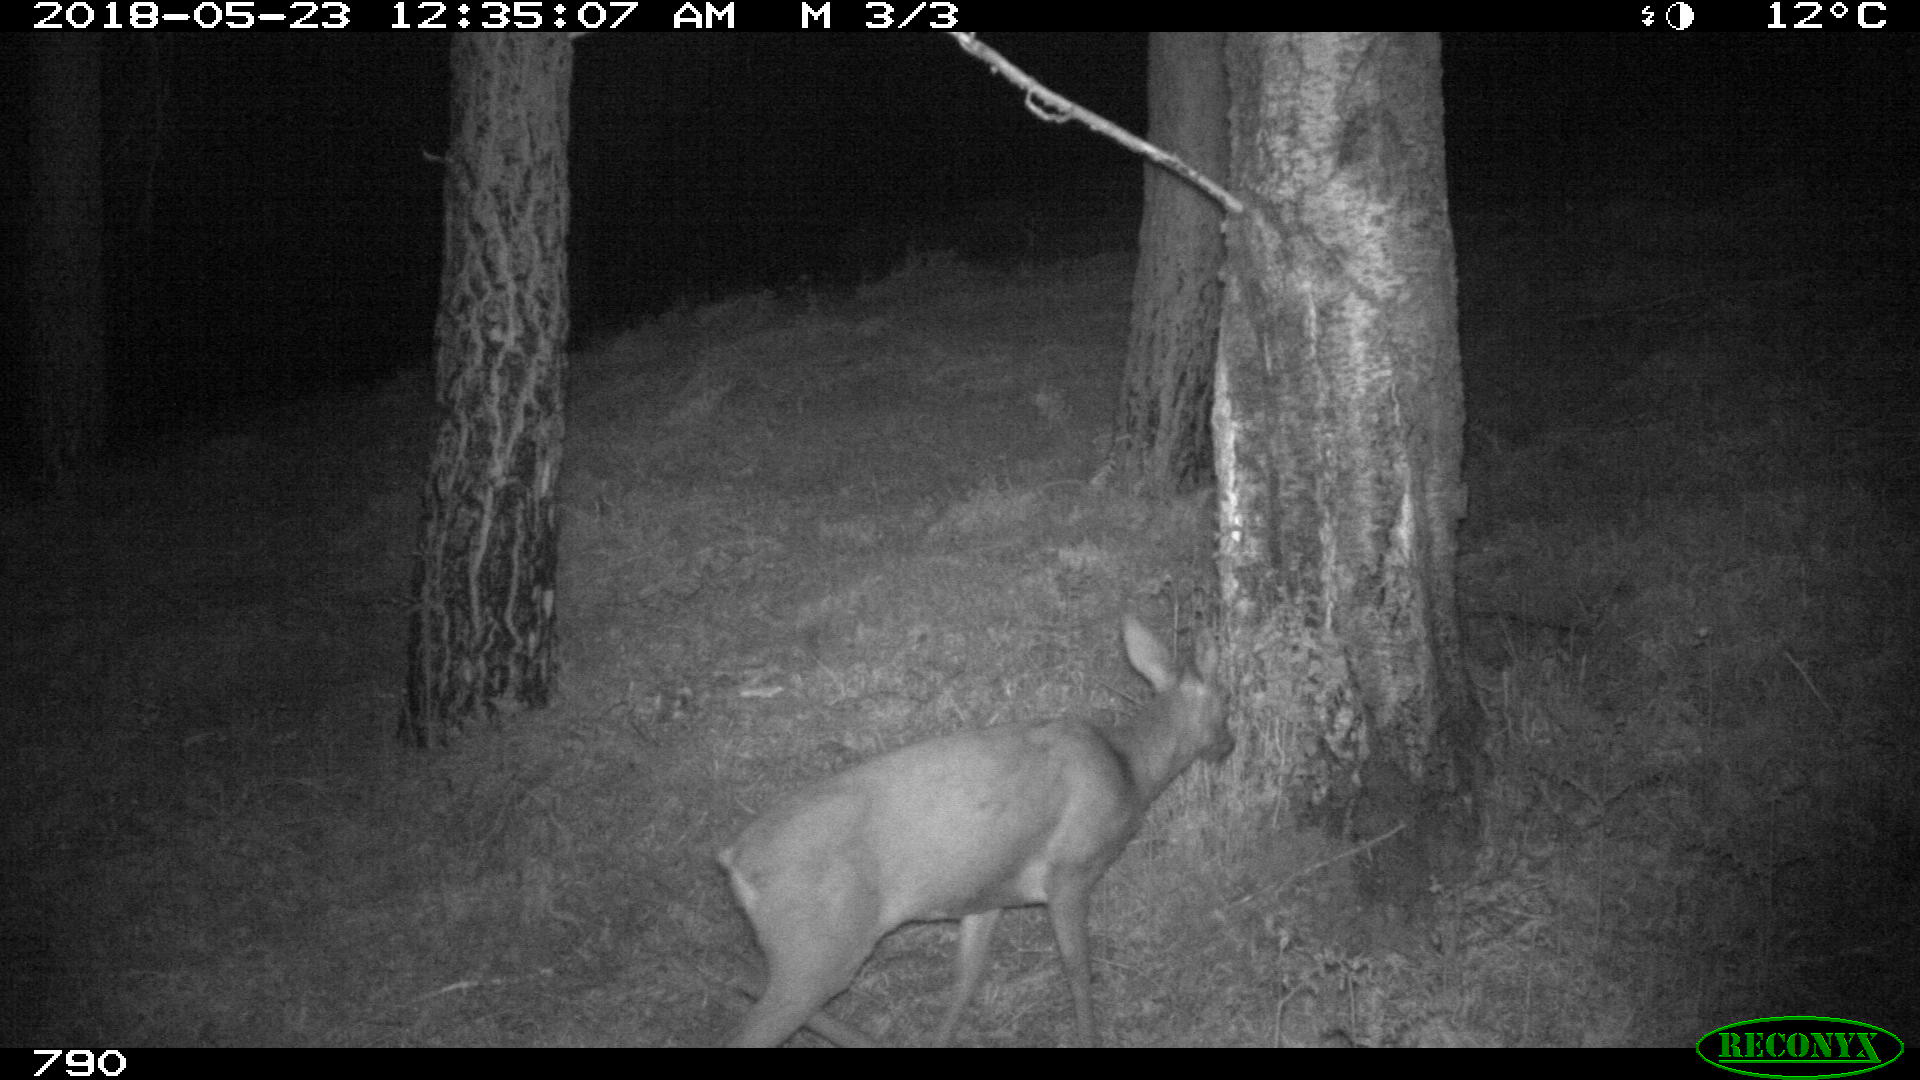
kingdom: Animalia
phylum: Chordata
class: Mammalia
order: Artiodactyla
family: Cervidae
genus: Capreolus
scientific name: Capreolus capreolus
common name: Western roe deer
